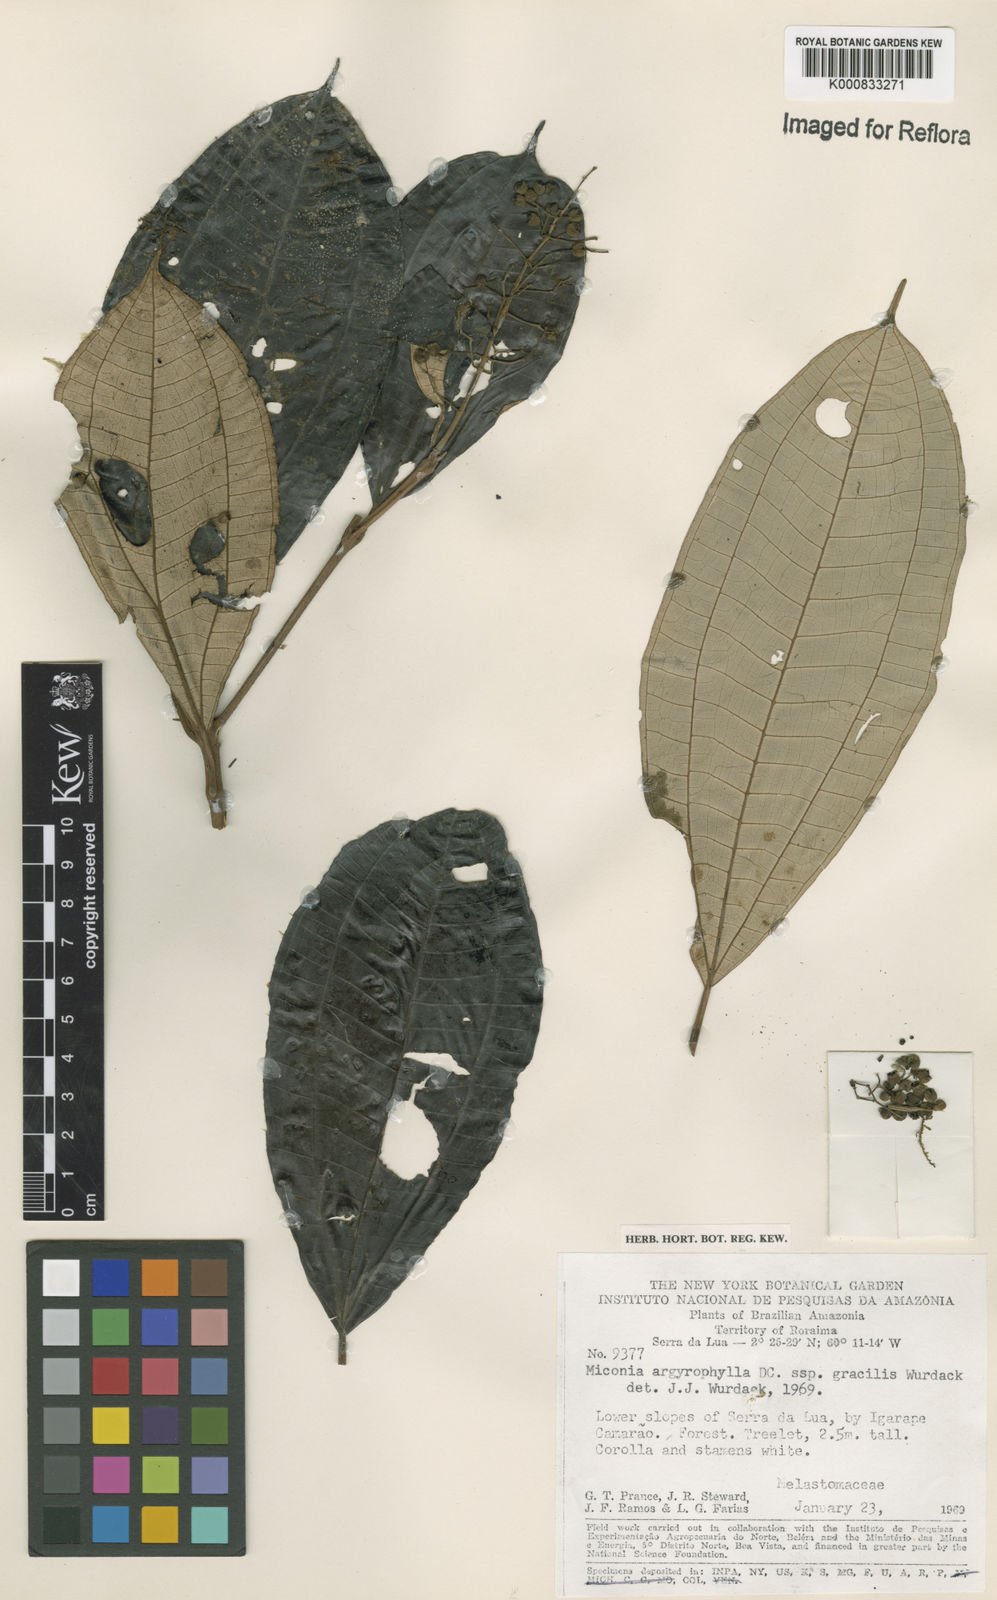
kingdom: Plantae
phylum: Tracheophyta
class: Magnoliopsida
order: Myrtales
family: Melastomataceae
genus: Miconia
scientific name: Miconia argyrophylla
